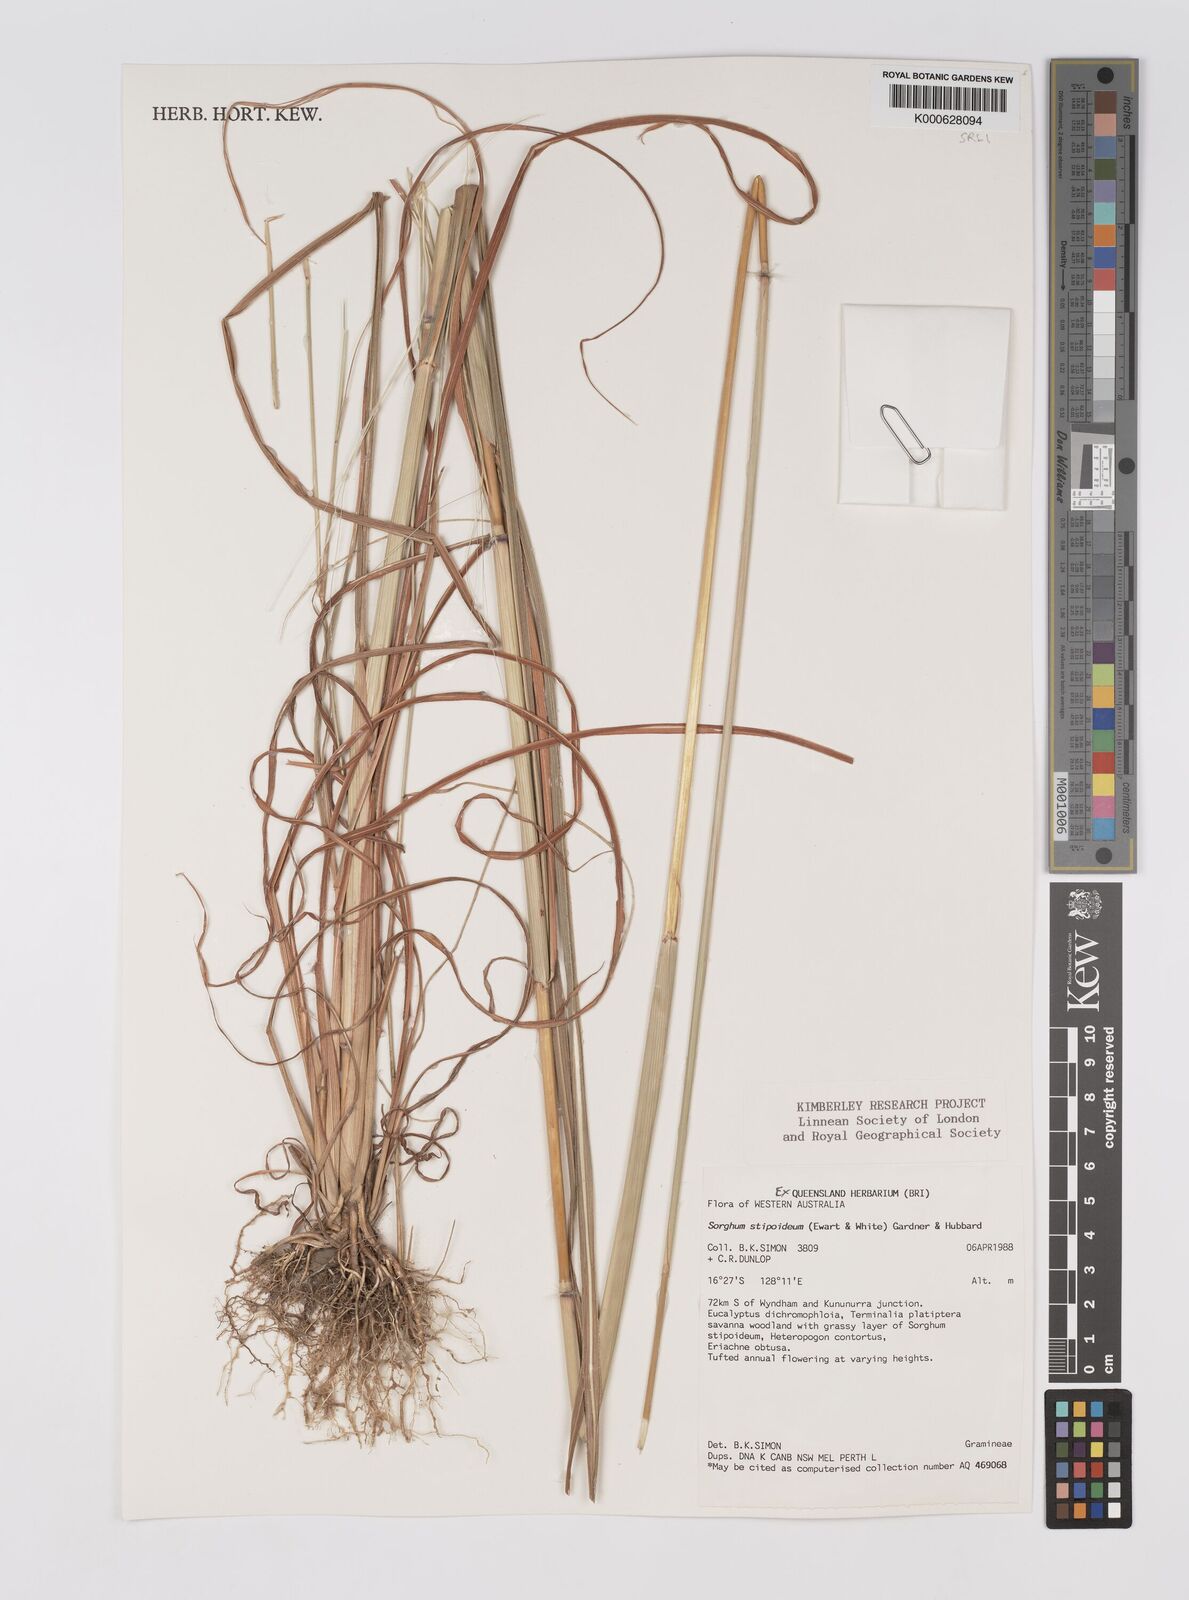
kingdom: Plantae
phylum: Tracheophyta
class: Liliopsida
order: Poales
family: Poaceae
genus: Sarga
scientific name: Sarga stipoidea
